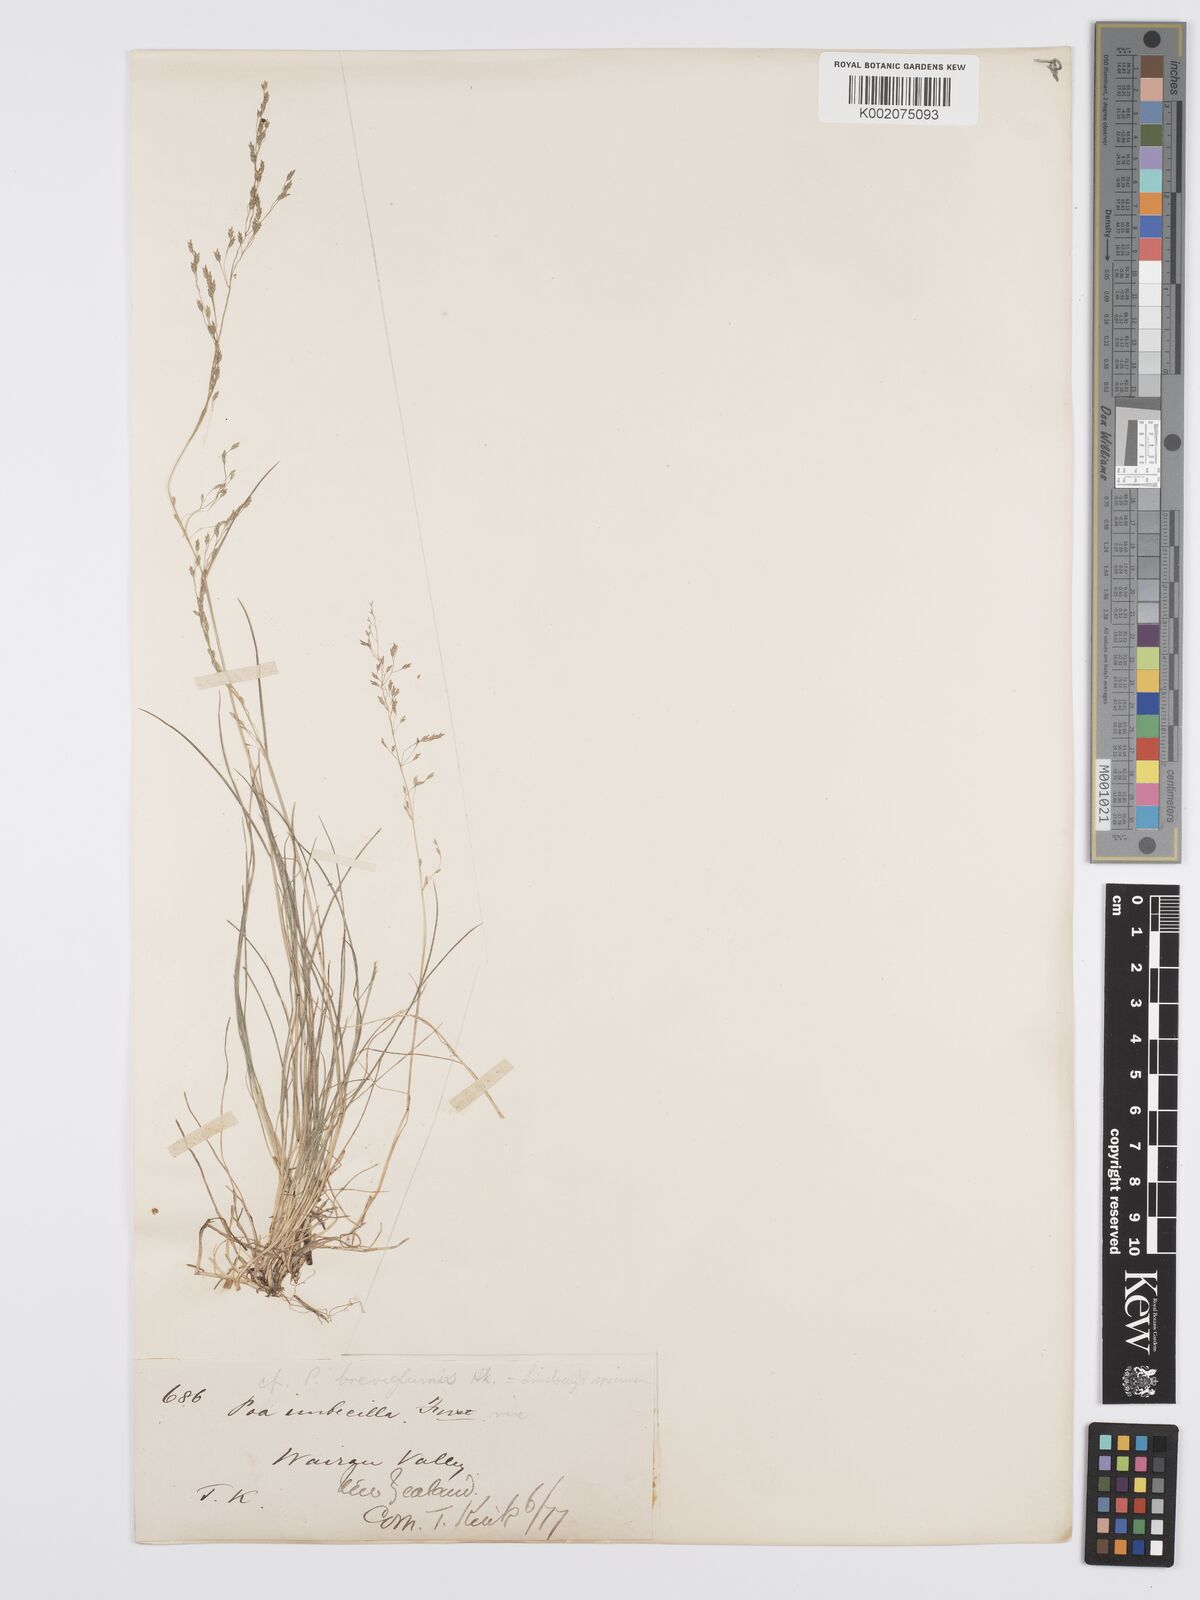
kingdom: Plantae
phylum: Tracheophyta
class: Liliopsida
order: Poales
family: Poaceae
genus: Poa
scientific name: Poa matthewsii
